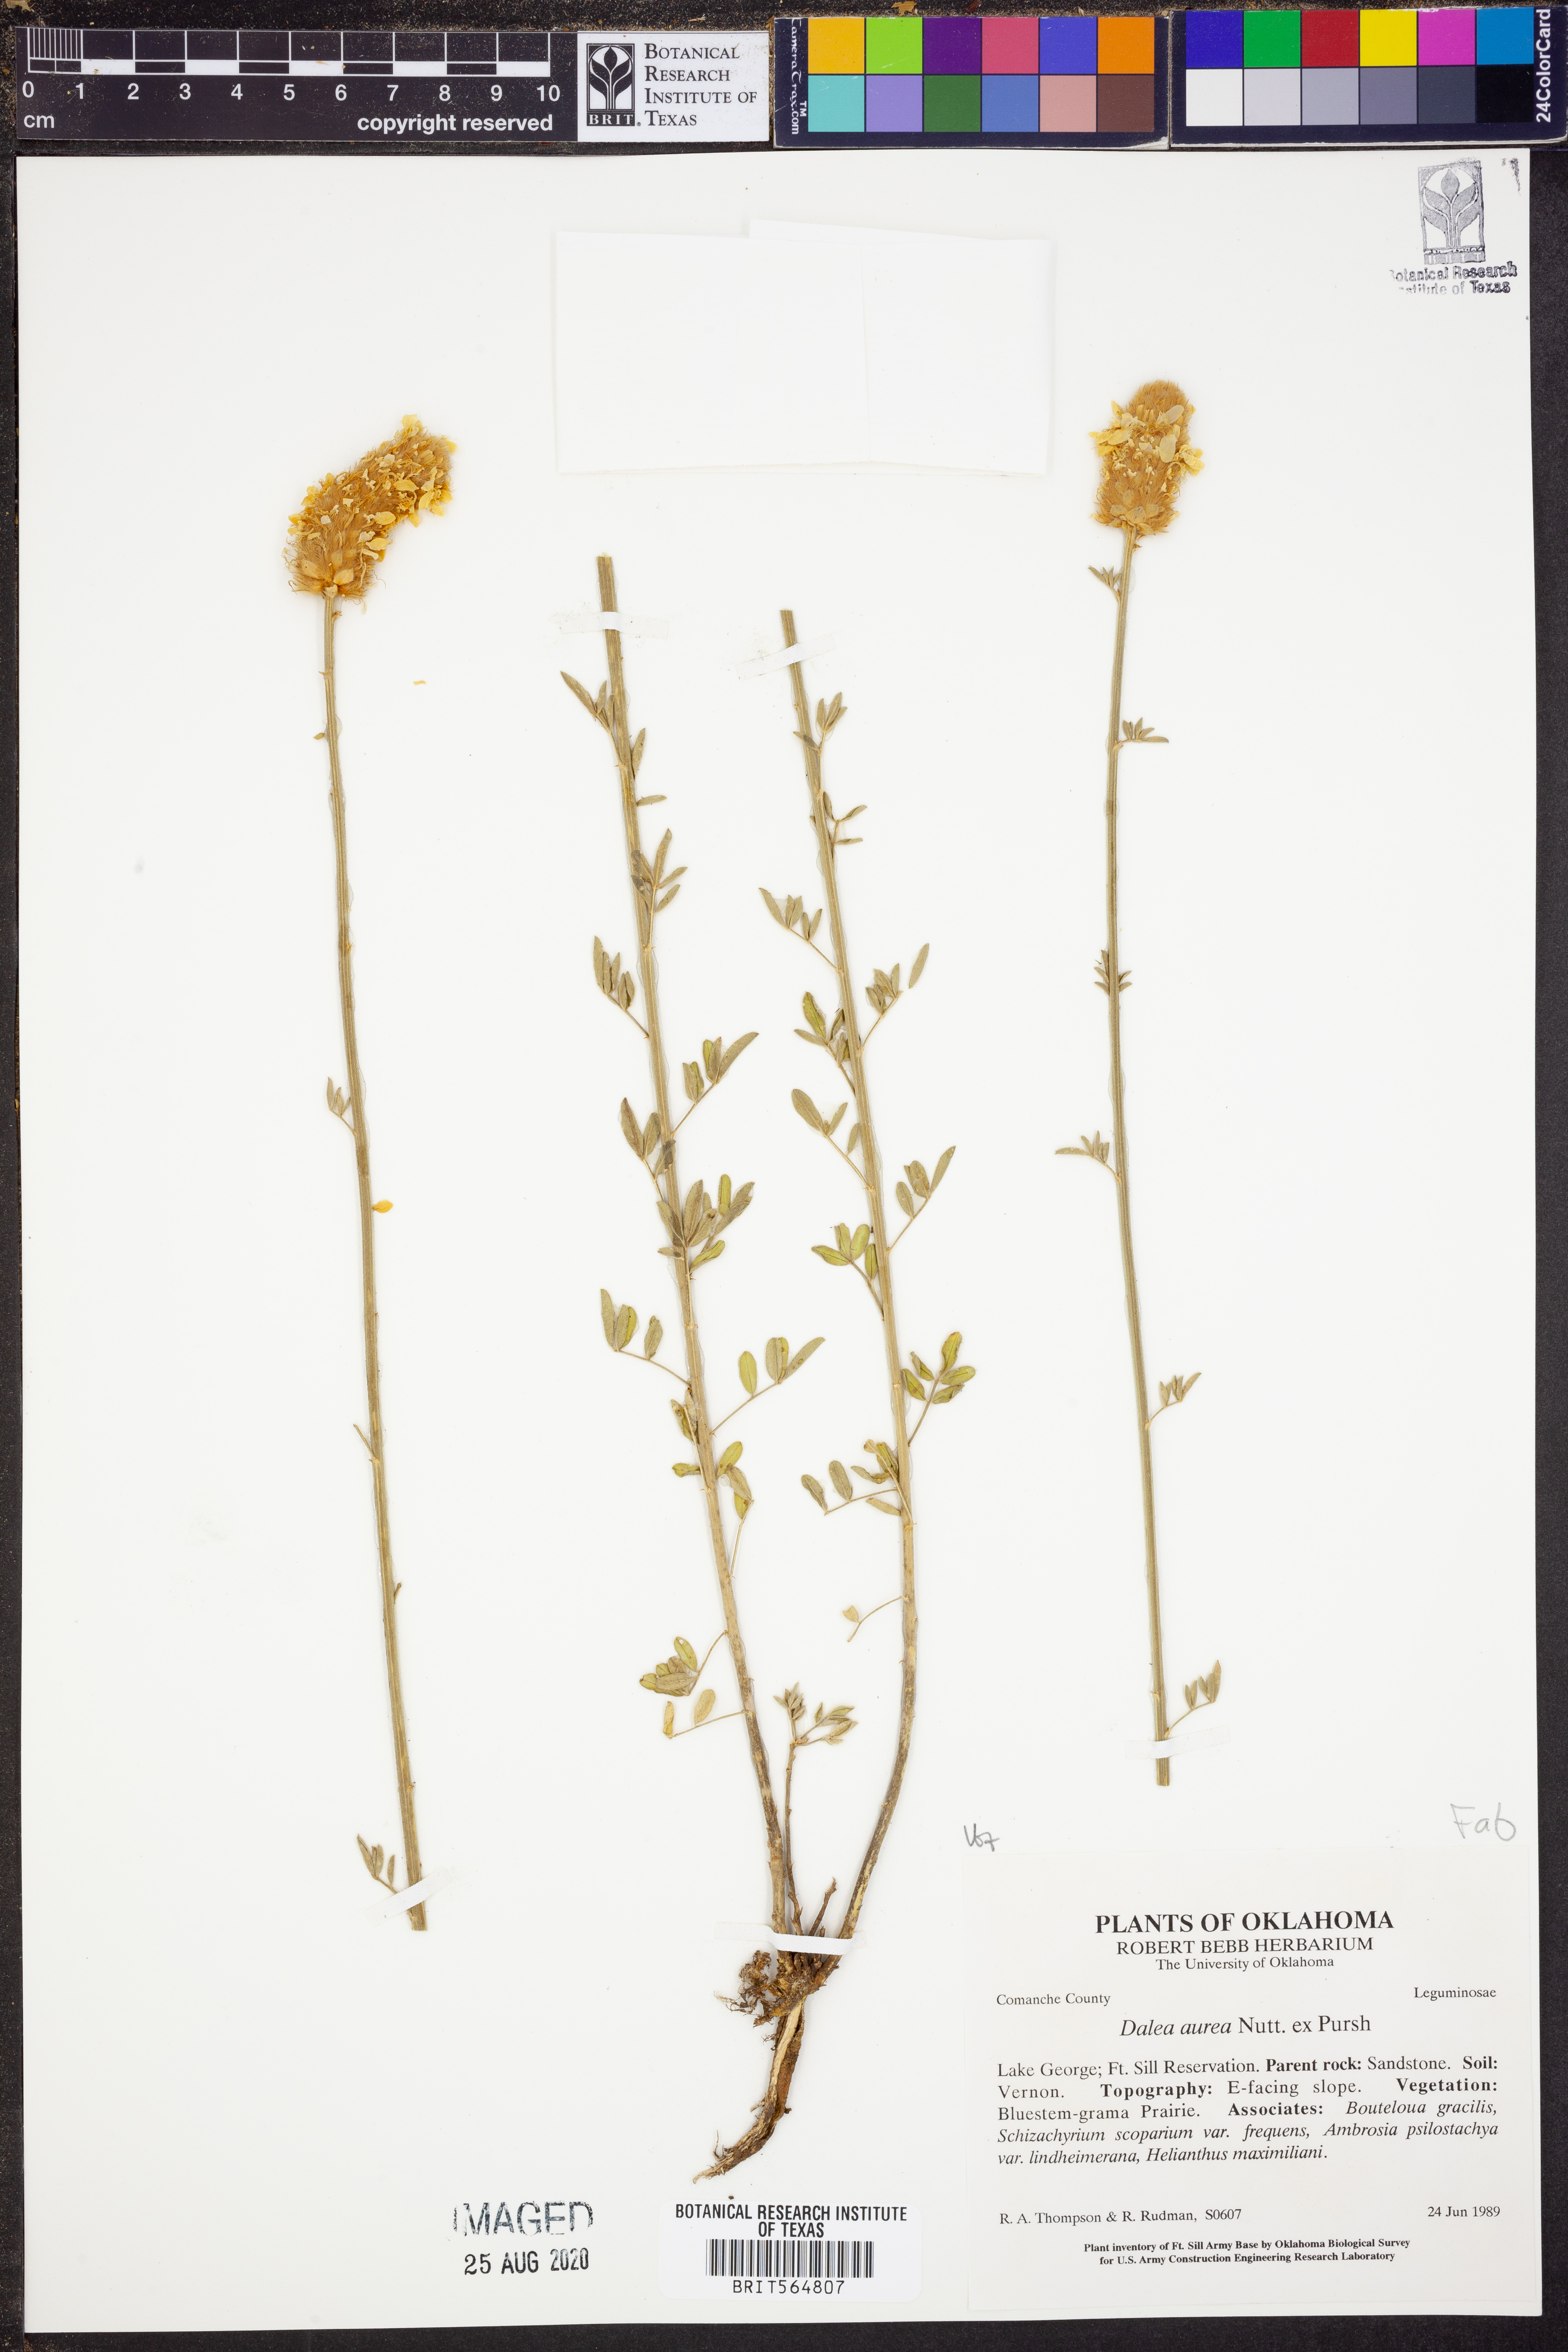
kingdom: Plantae
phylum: Tracheophyta
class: Magnoliopsida
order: Fabales
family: Fabaceae
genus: Dalea
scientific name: Dalea aurea
